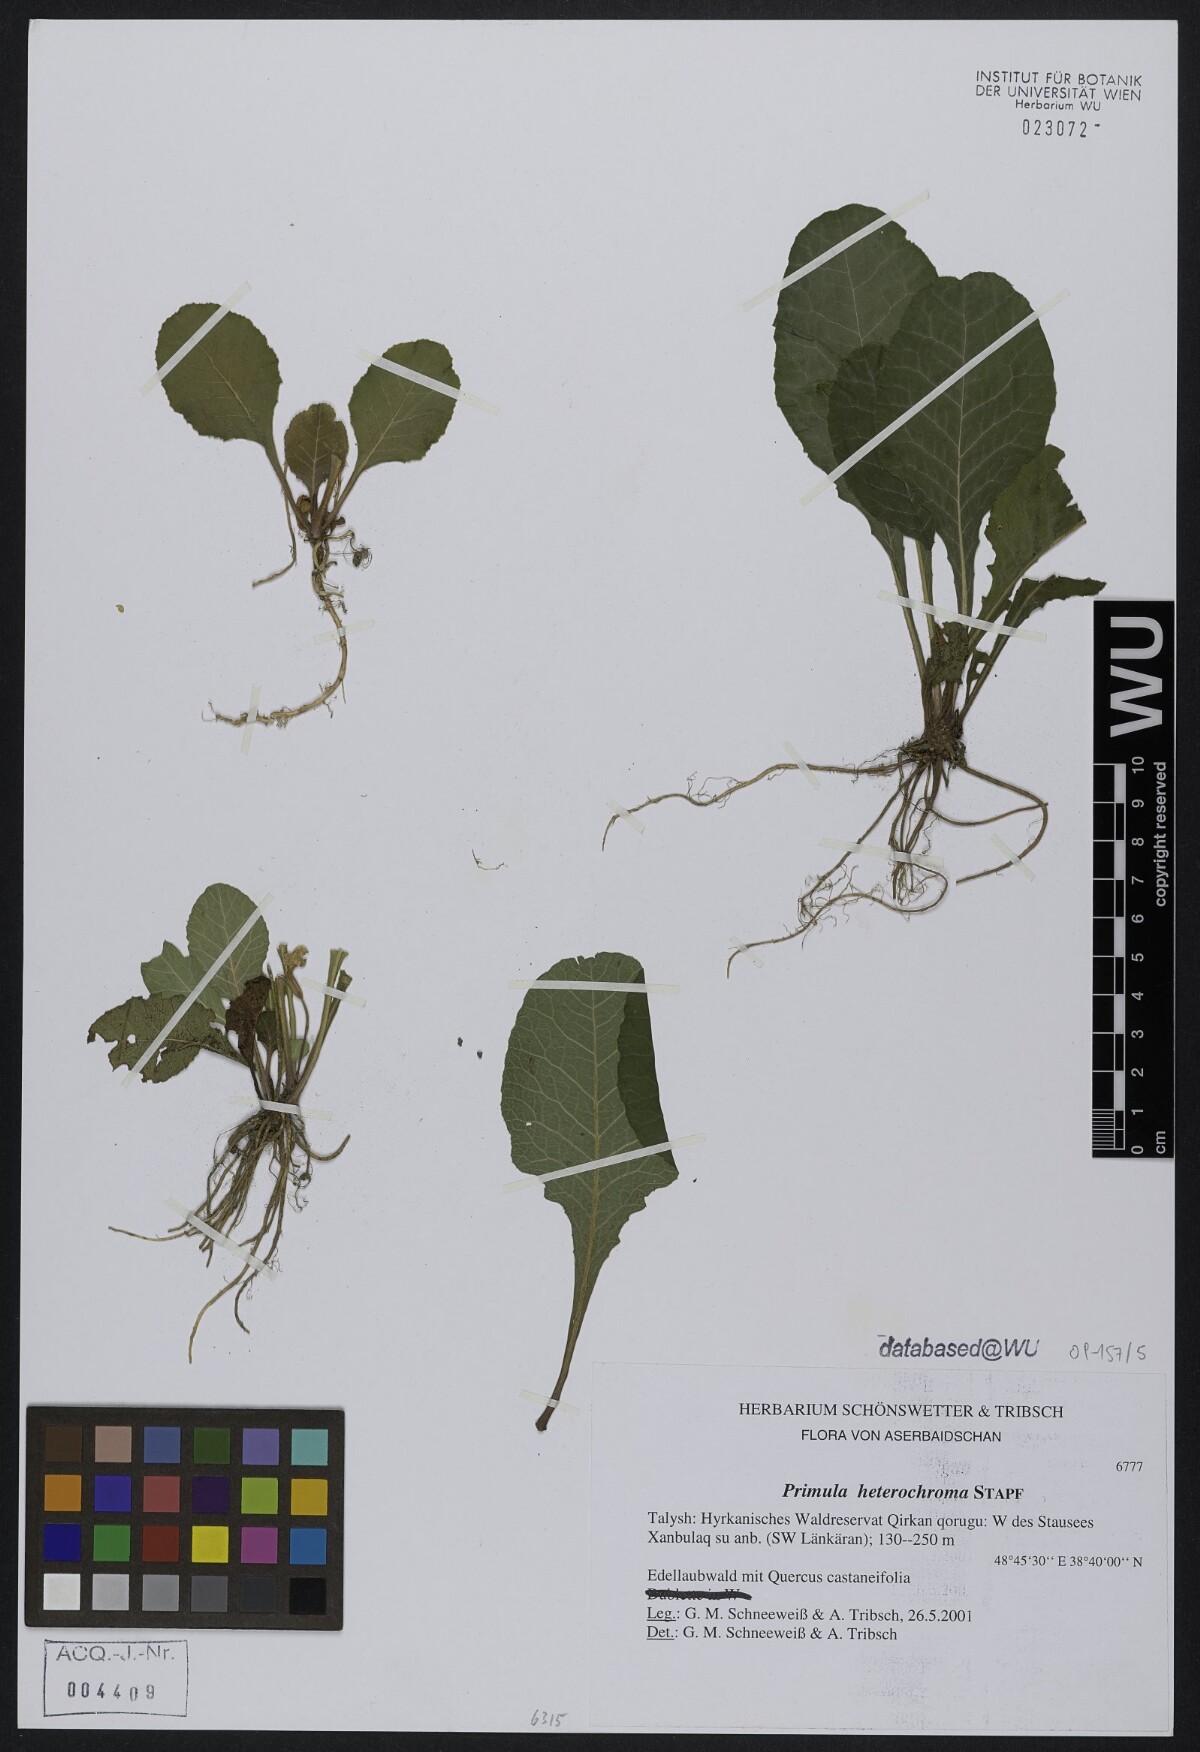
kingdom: Plantae
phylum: Tracheophyta
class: Magnoliopsida
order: Ericales
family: Primulaceae
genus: Primula
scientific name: Primula heterochroma
